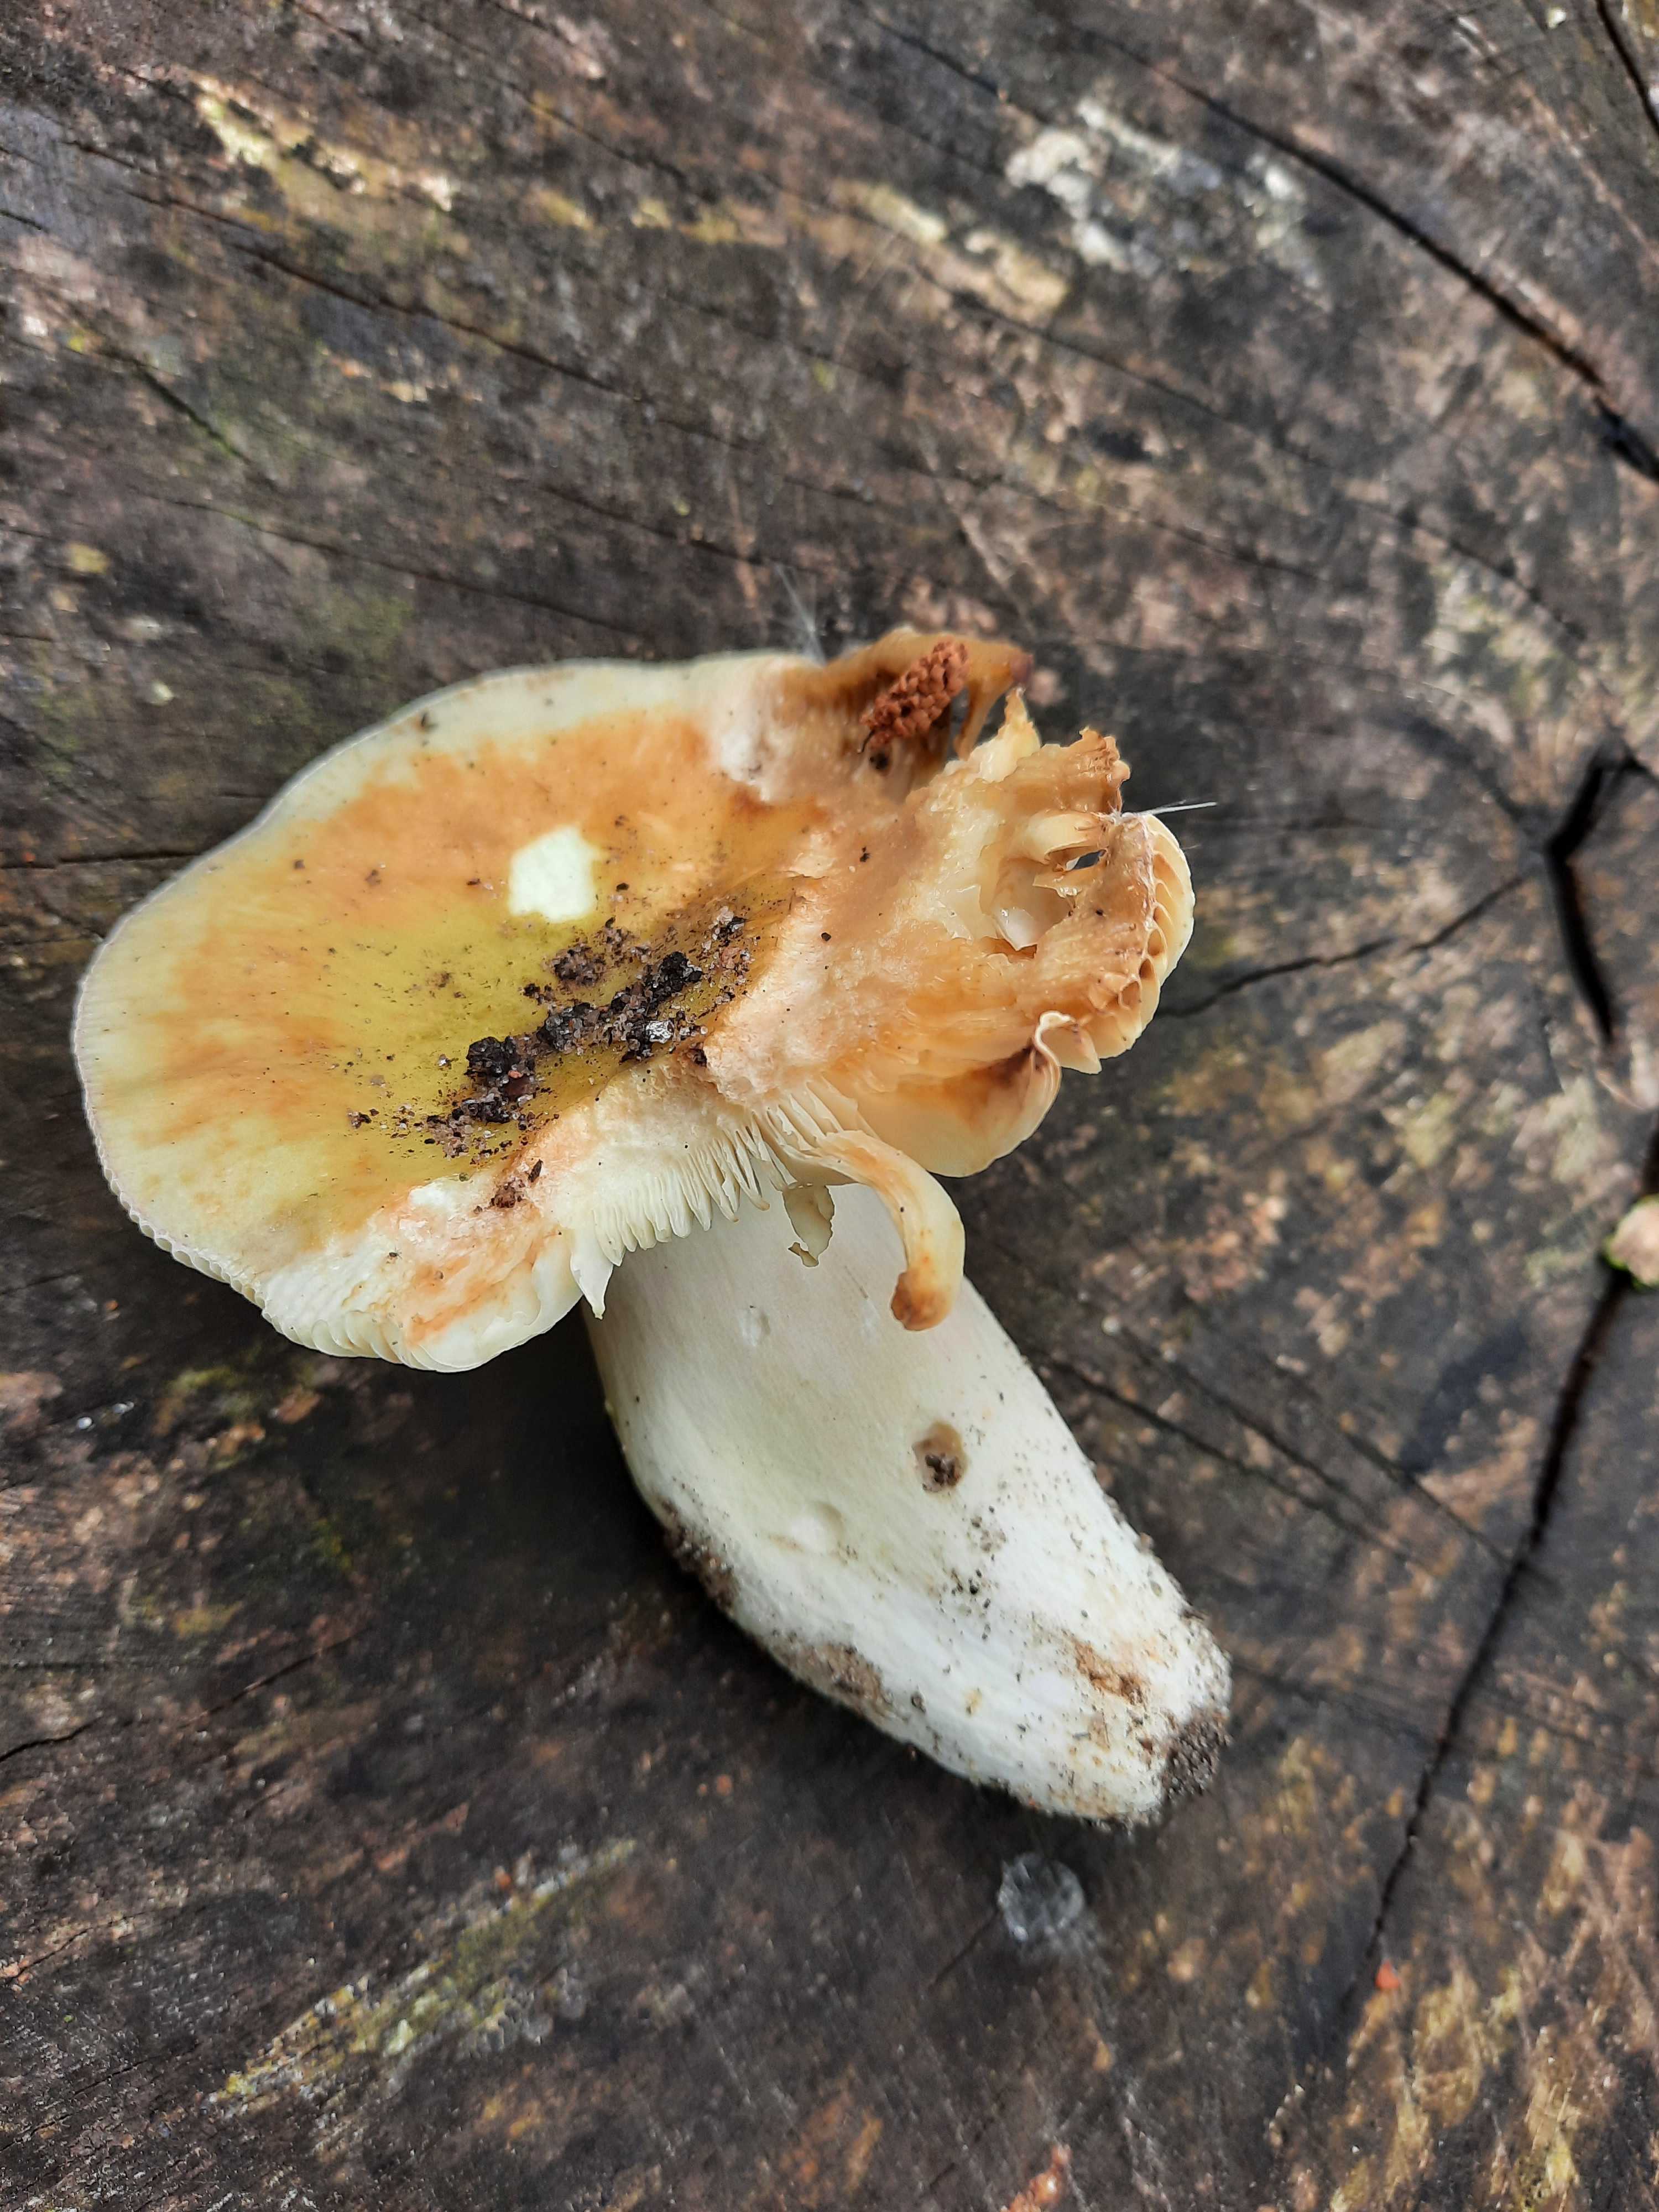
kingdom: Fungi
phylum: Basidiomycota
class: Agaricomycetes
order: Russulales
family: Russulaceae
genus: Russula
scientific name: Russula
